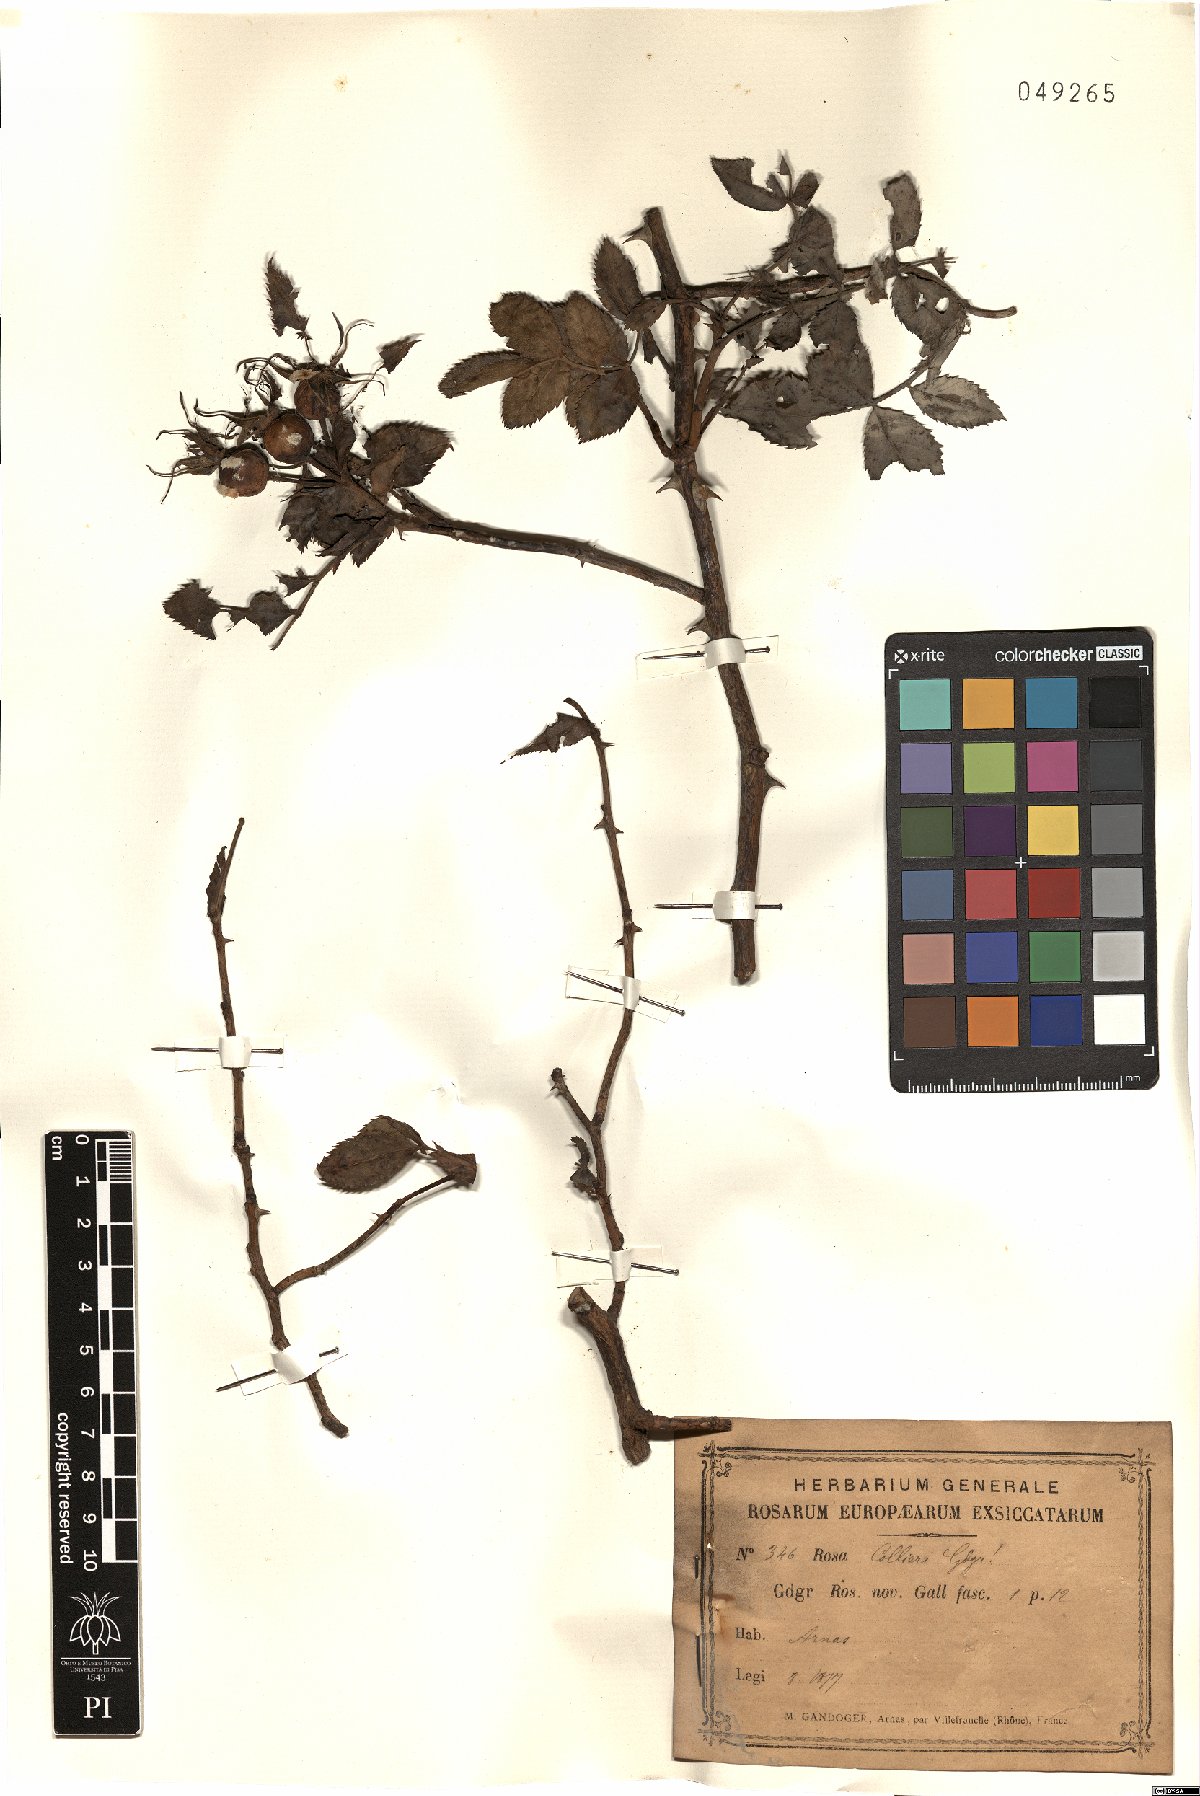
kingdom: Plantae
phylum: Tracheophyta
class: Magnoliopsida
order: Rosales
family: Rosaceae
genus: Rosa
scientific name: Rosa collieri
